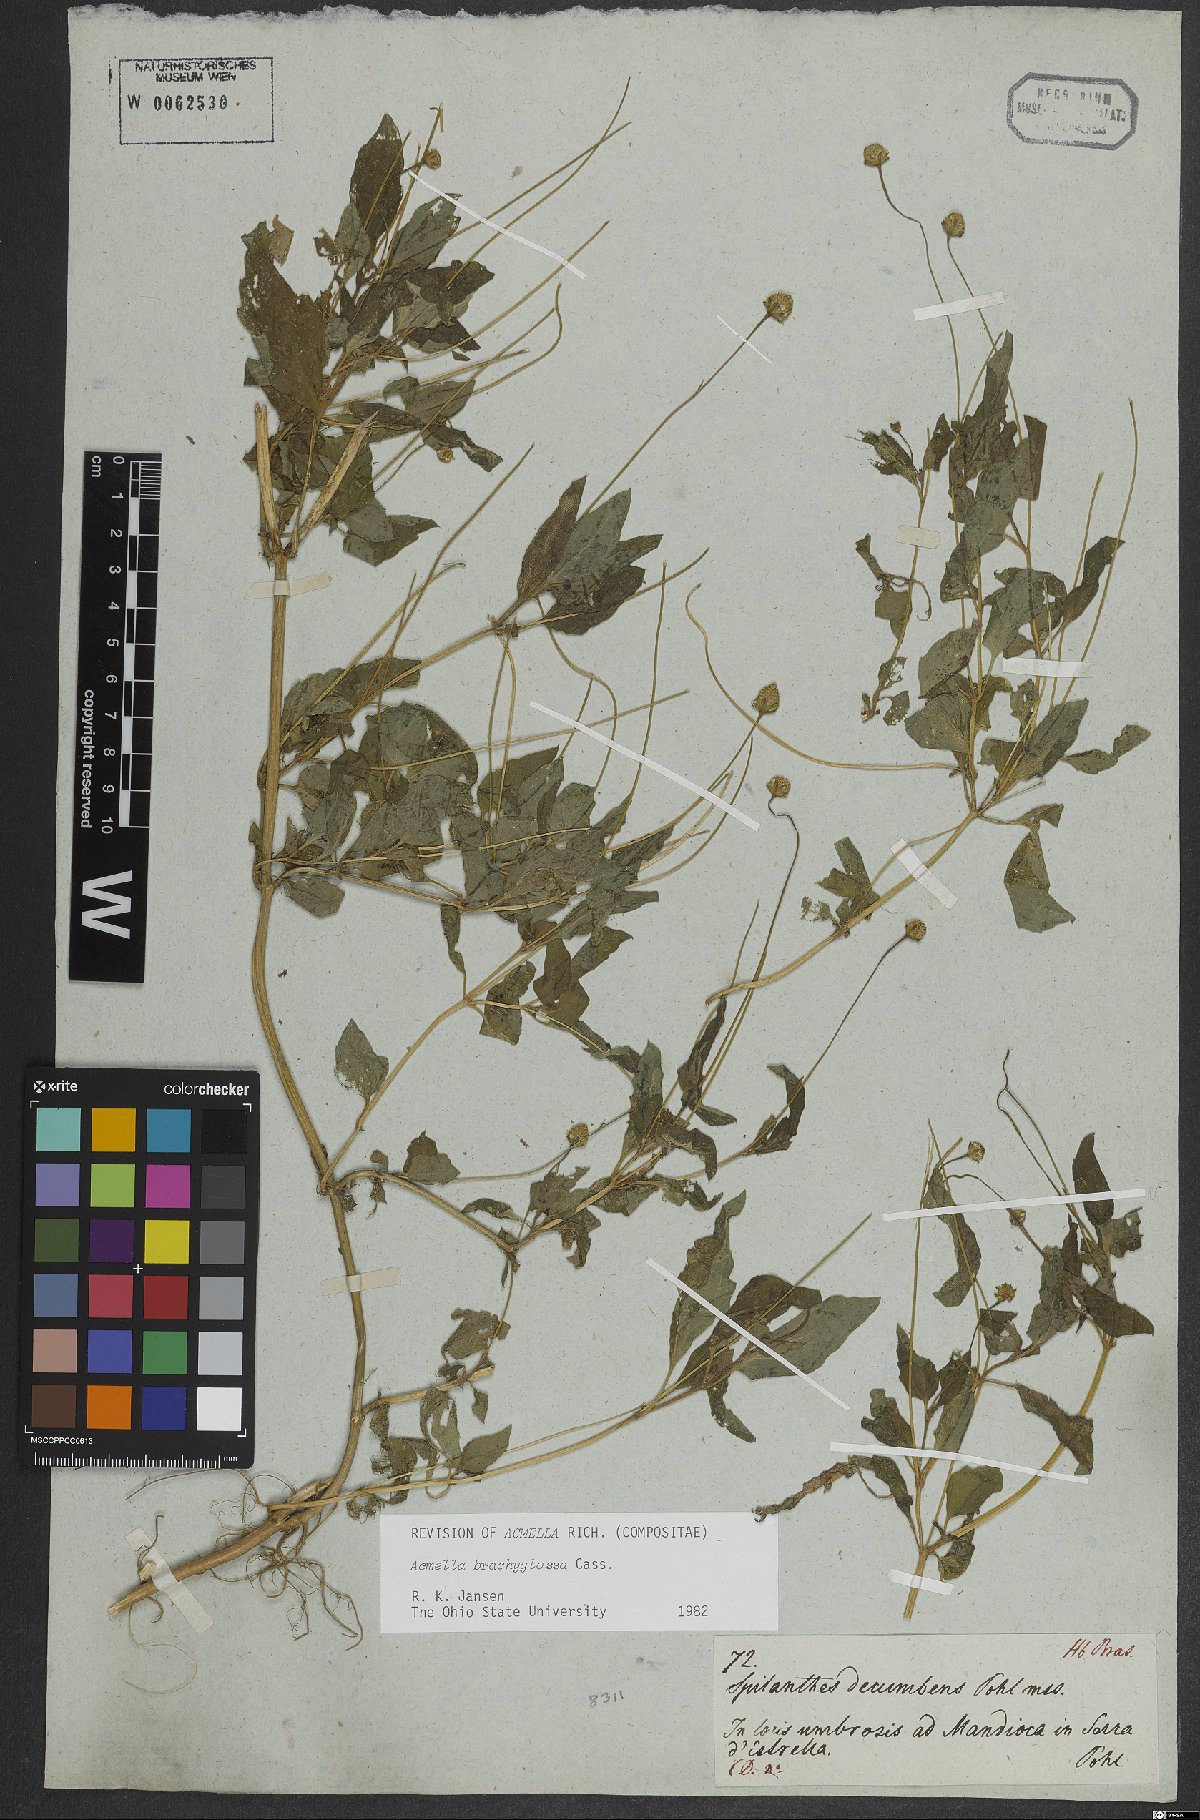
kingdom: Plantae
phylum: Tracheophyta
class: Magnoliopsida
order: Asterales
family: Asteraceae
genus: Acmella
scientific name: Acmella brachyglossa
